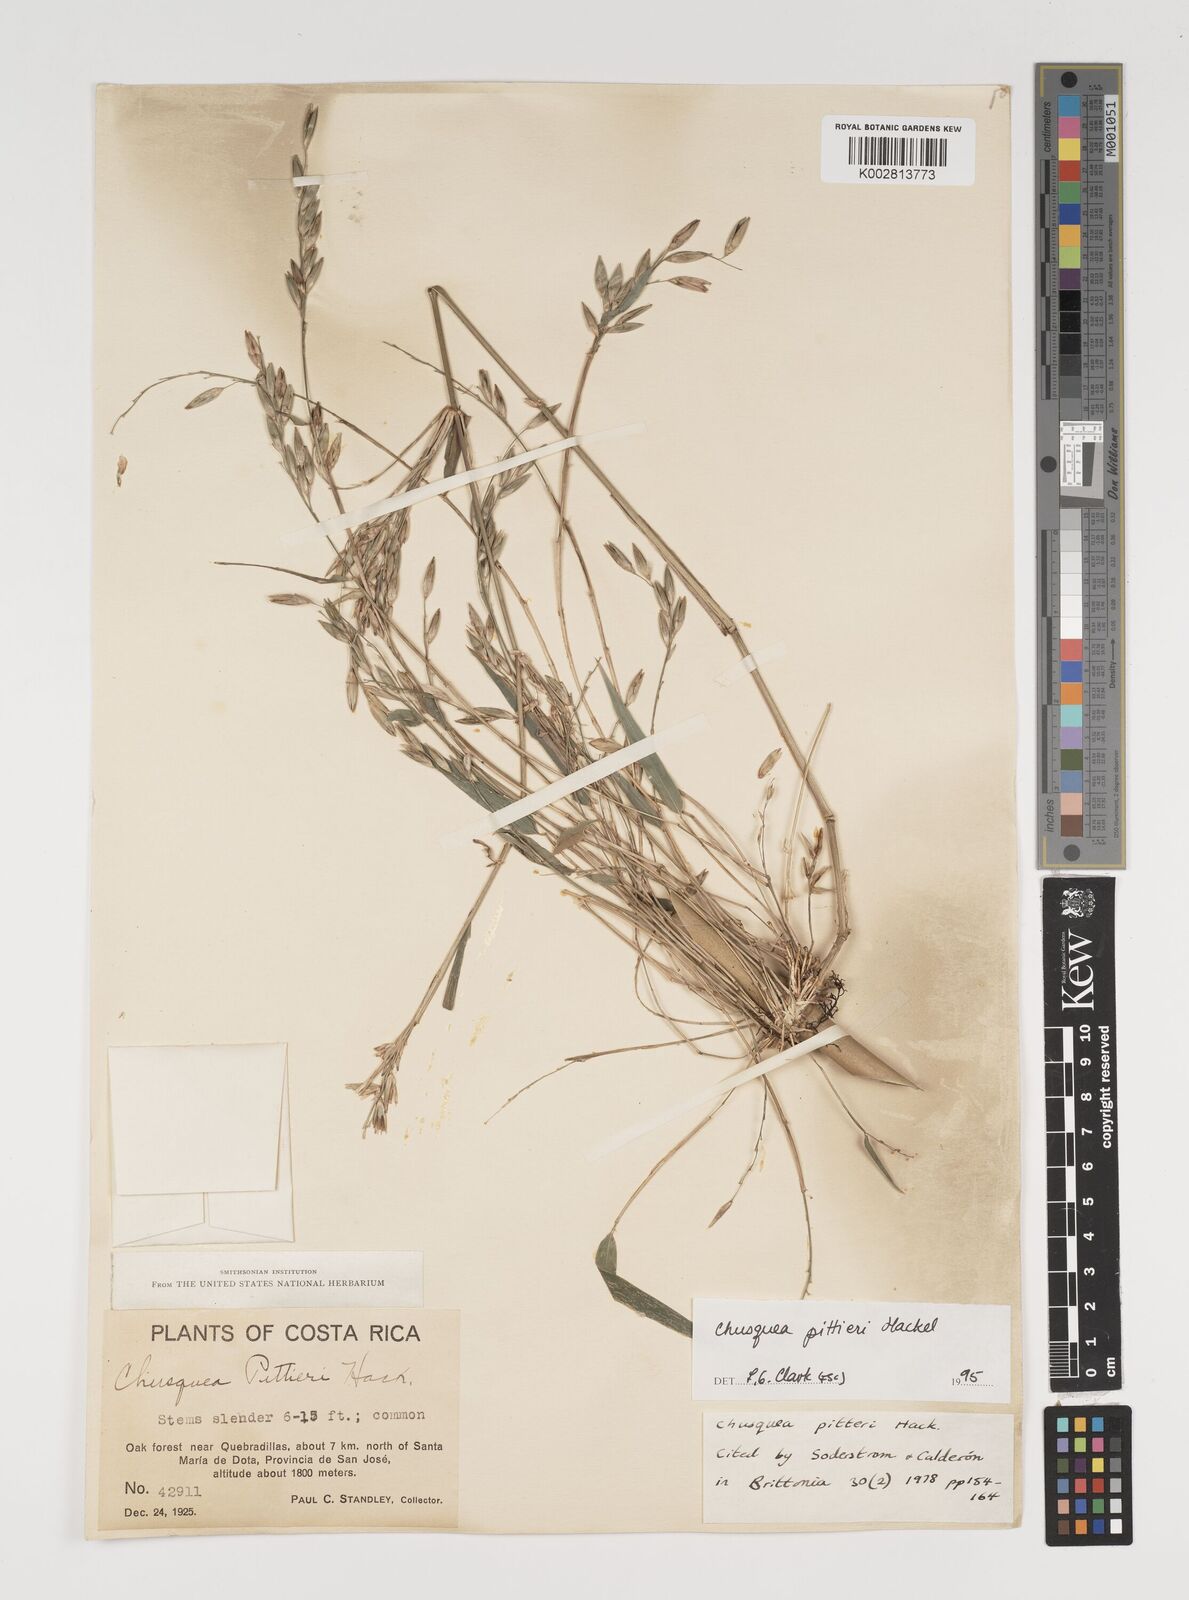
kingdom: Plantae
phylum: Tracheophyta
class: Liliopsida
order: Poales
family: Poaceae
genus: Chusquea
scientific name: Chusquea pittieri
